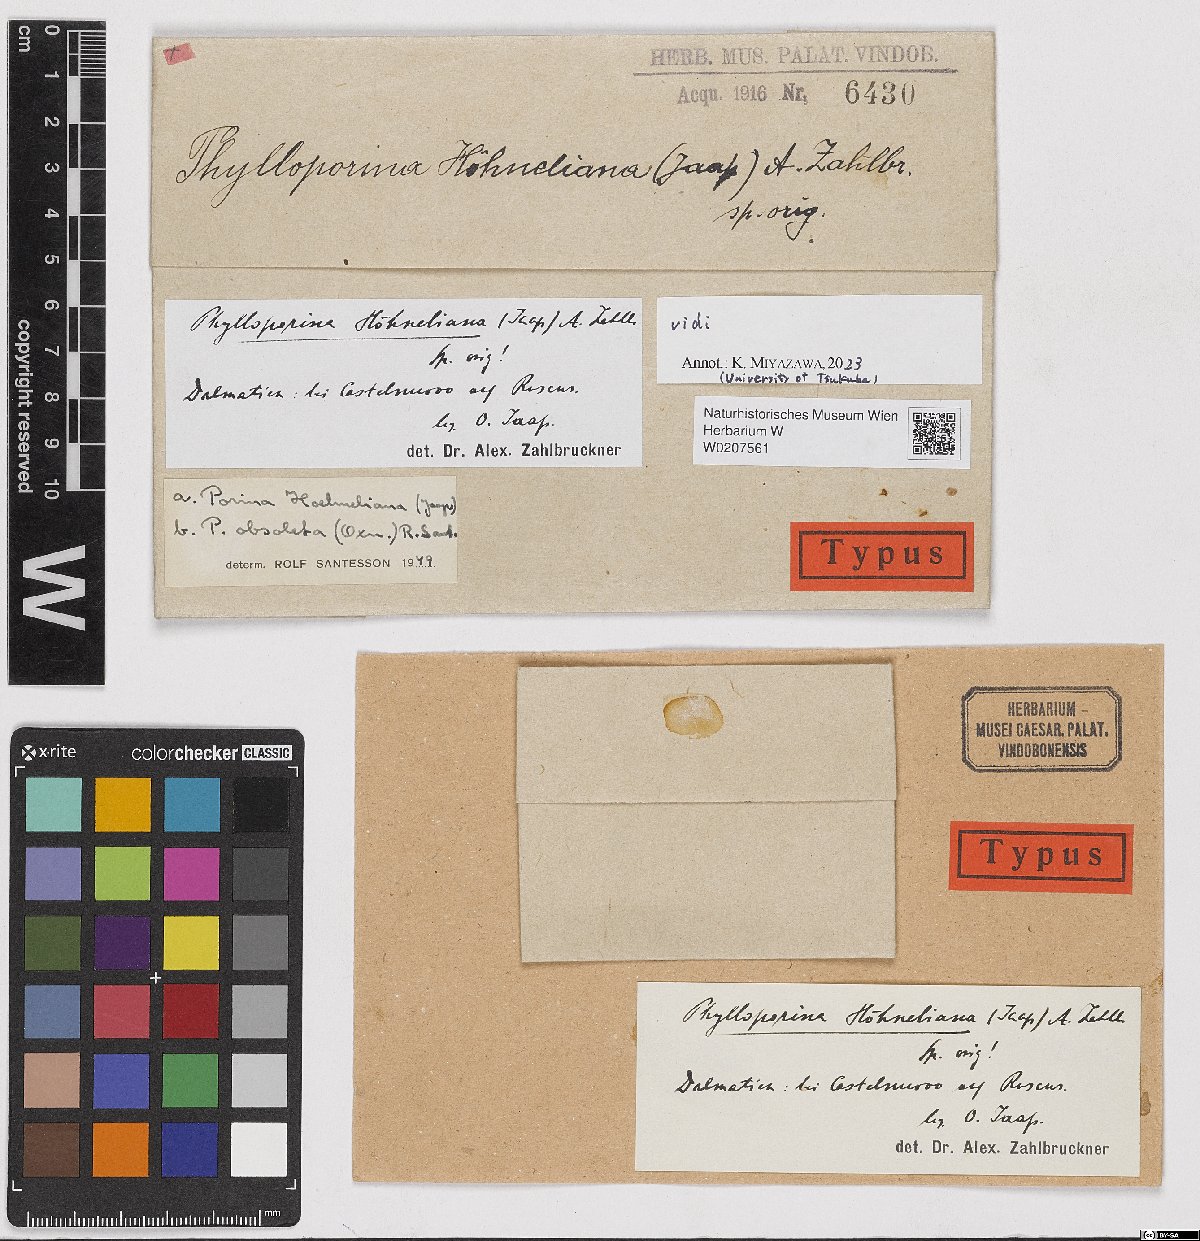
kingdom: Fungi
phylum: Ascomycota
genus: Phylloporina
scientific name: Phylloporina
